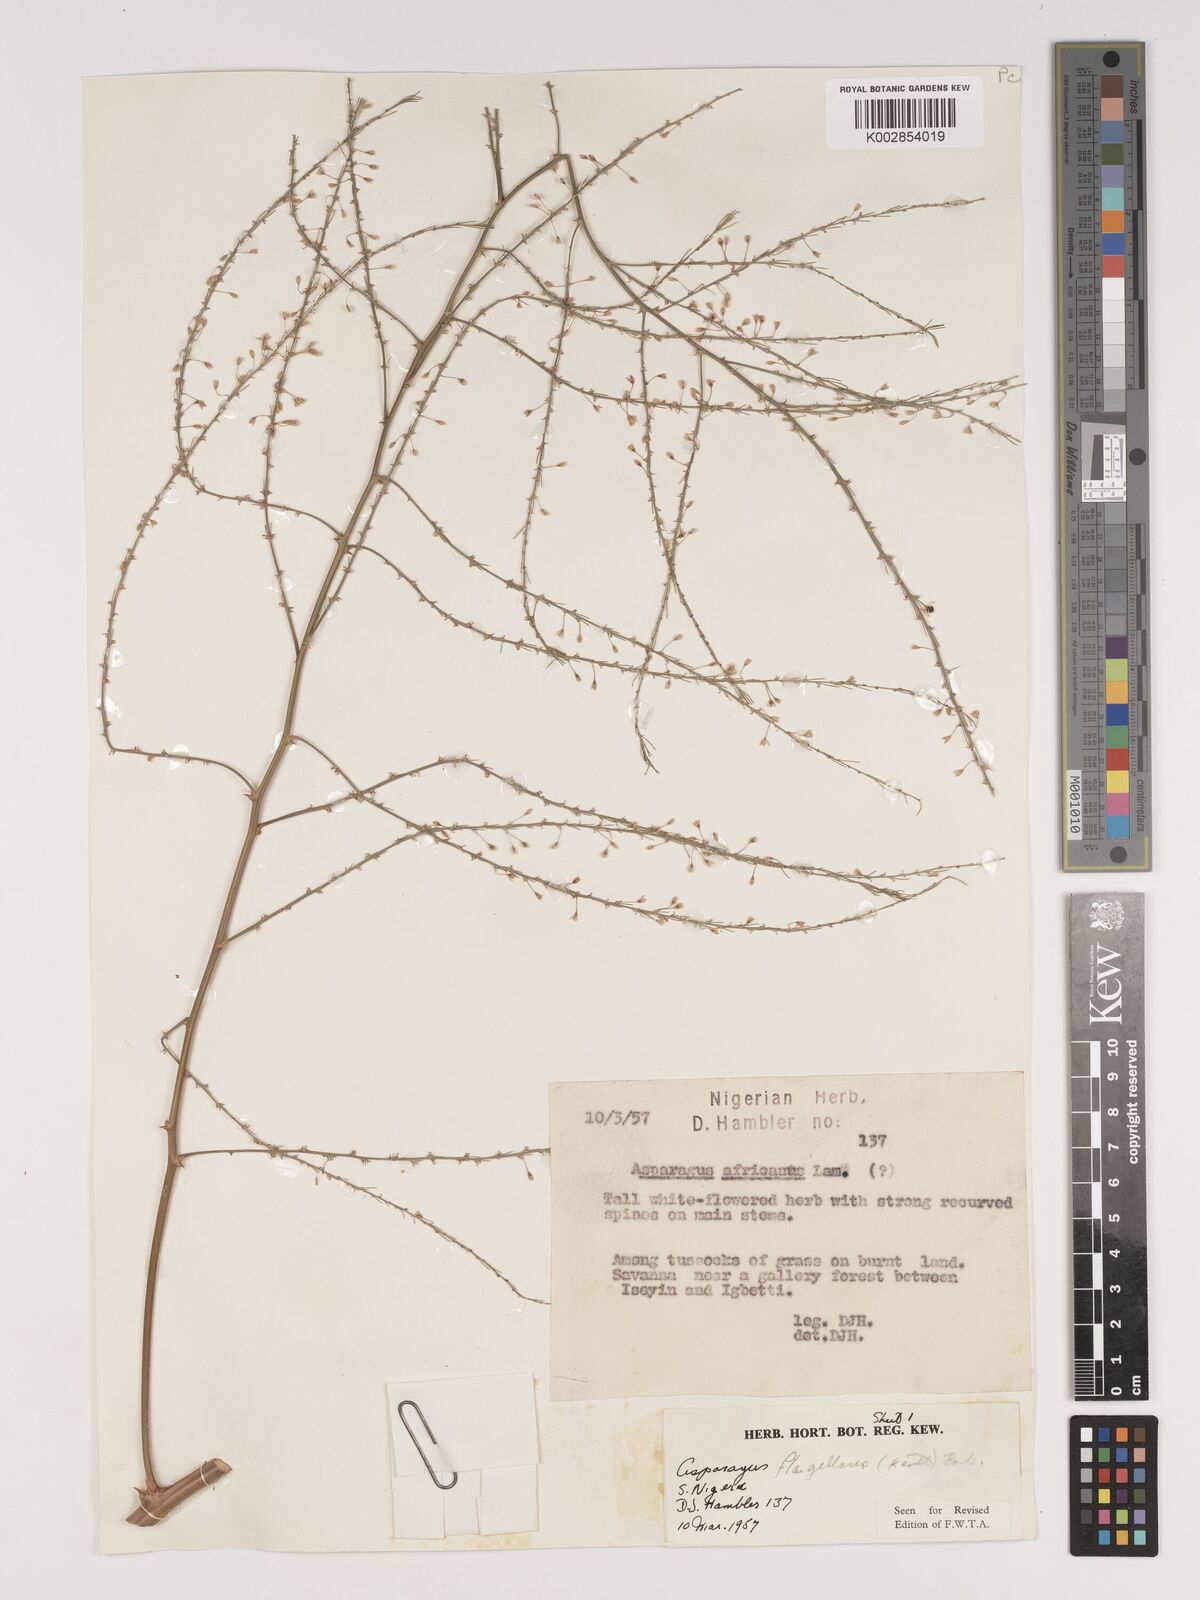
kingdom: Plantae
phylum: Tracheophyta
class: Liliopsida
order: Asparagales
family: Asparagaceae
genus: Asparagus
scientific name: Asparagus flagellaris
